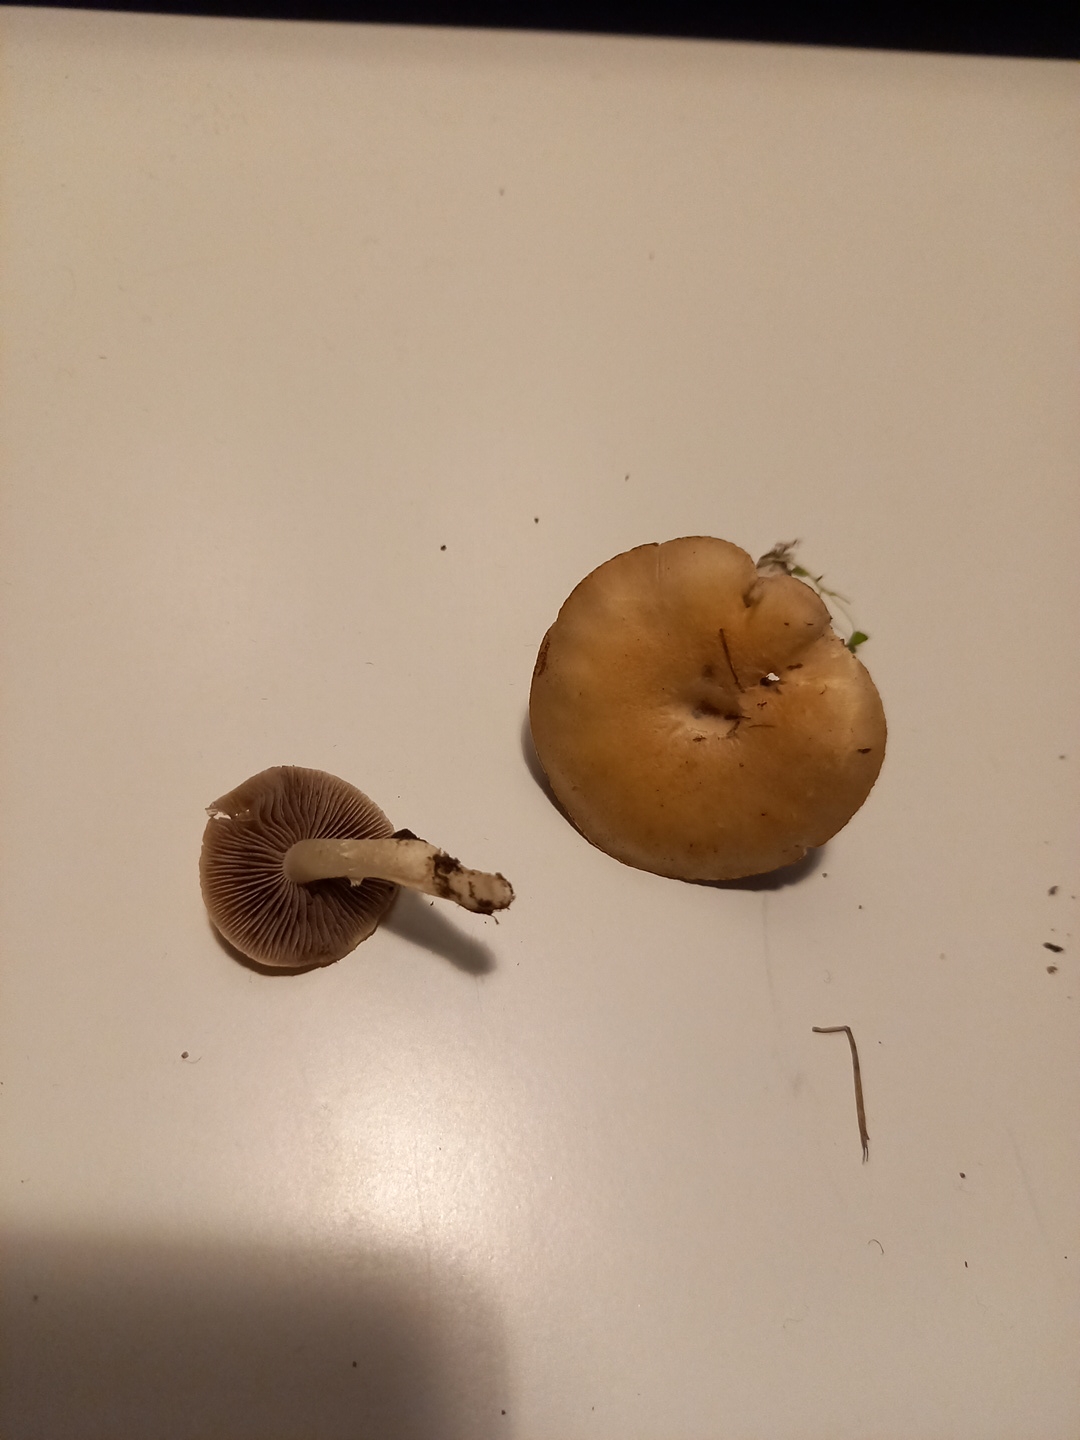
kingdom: Fungi
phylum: Basidiomycota
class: Agaricomycetes
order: Agaricales
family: Hymenogastraceae
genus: Psilocybe
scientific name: Psilocybe coronilla
